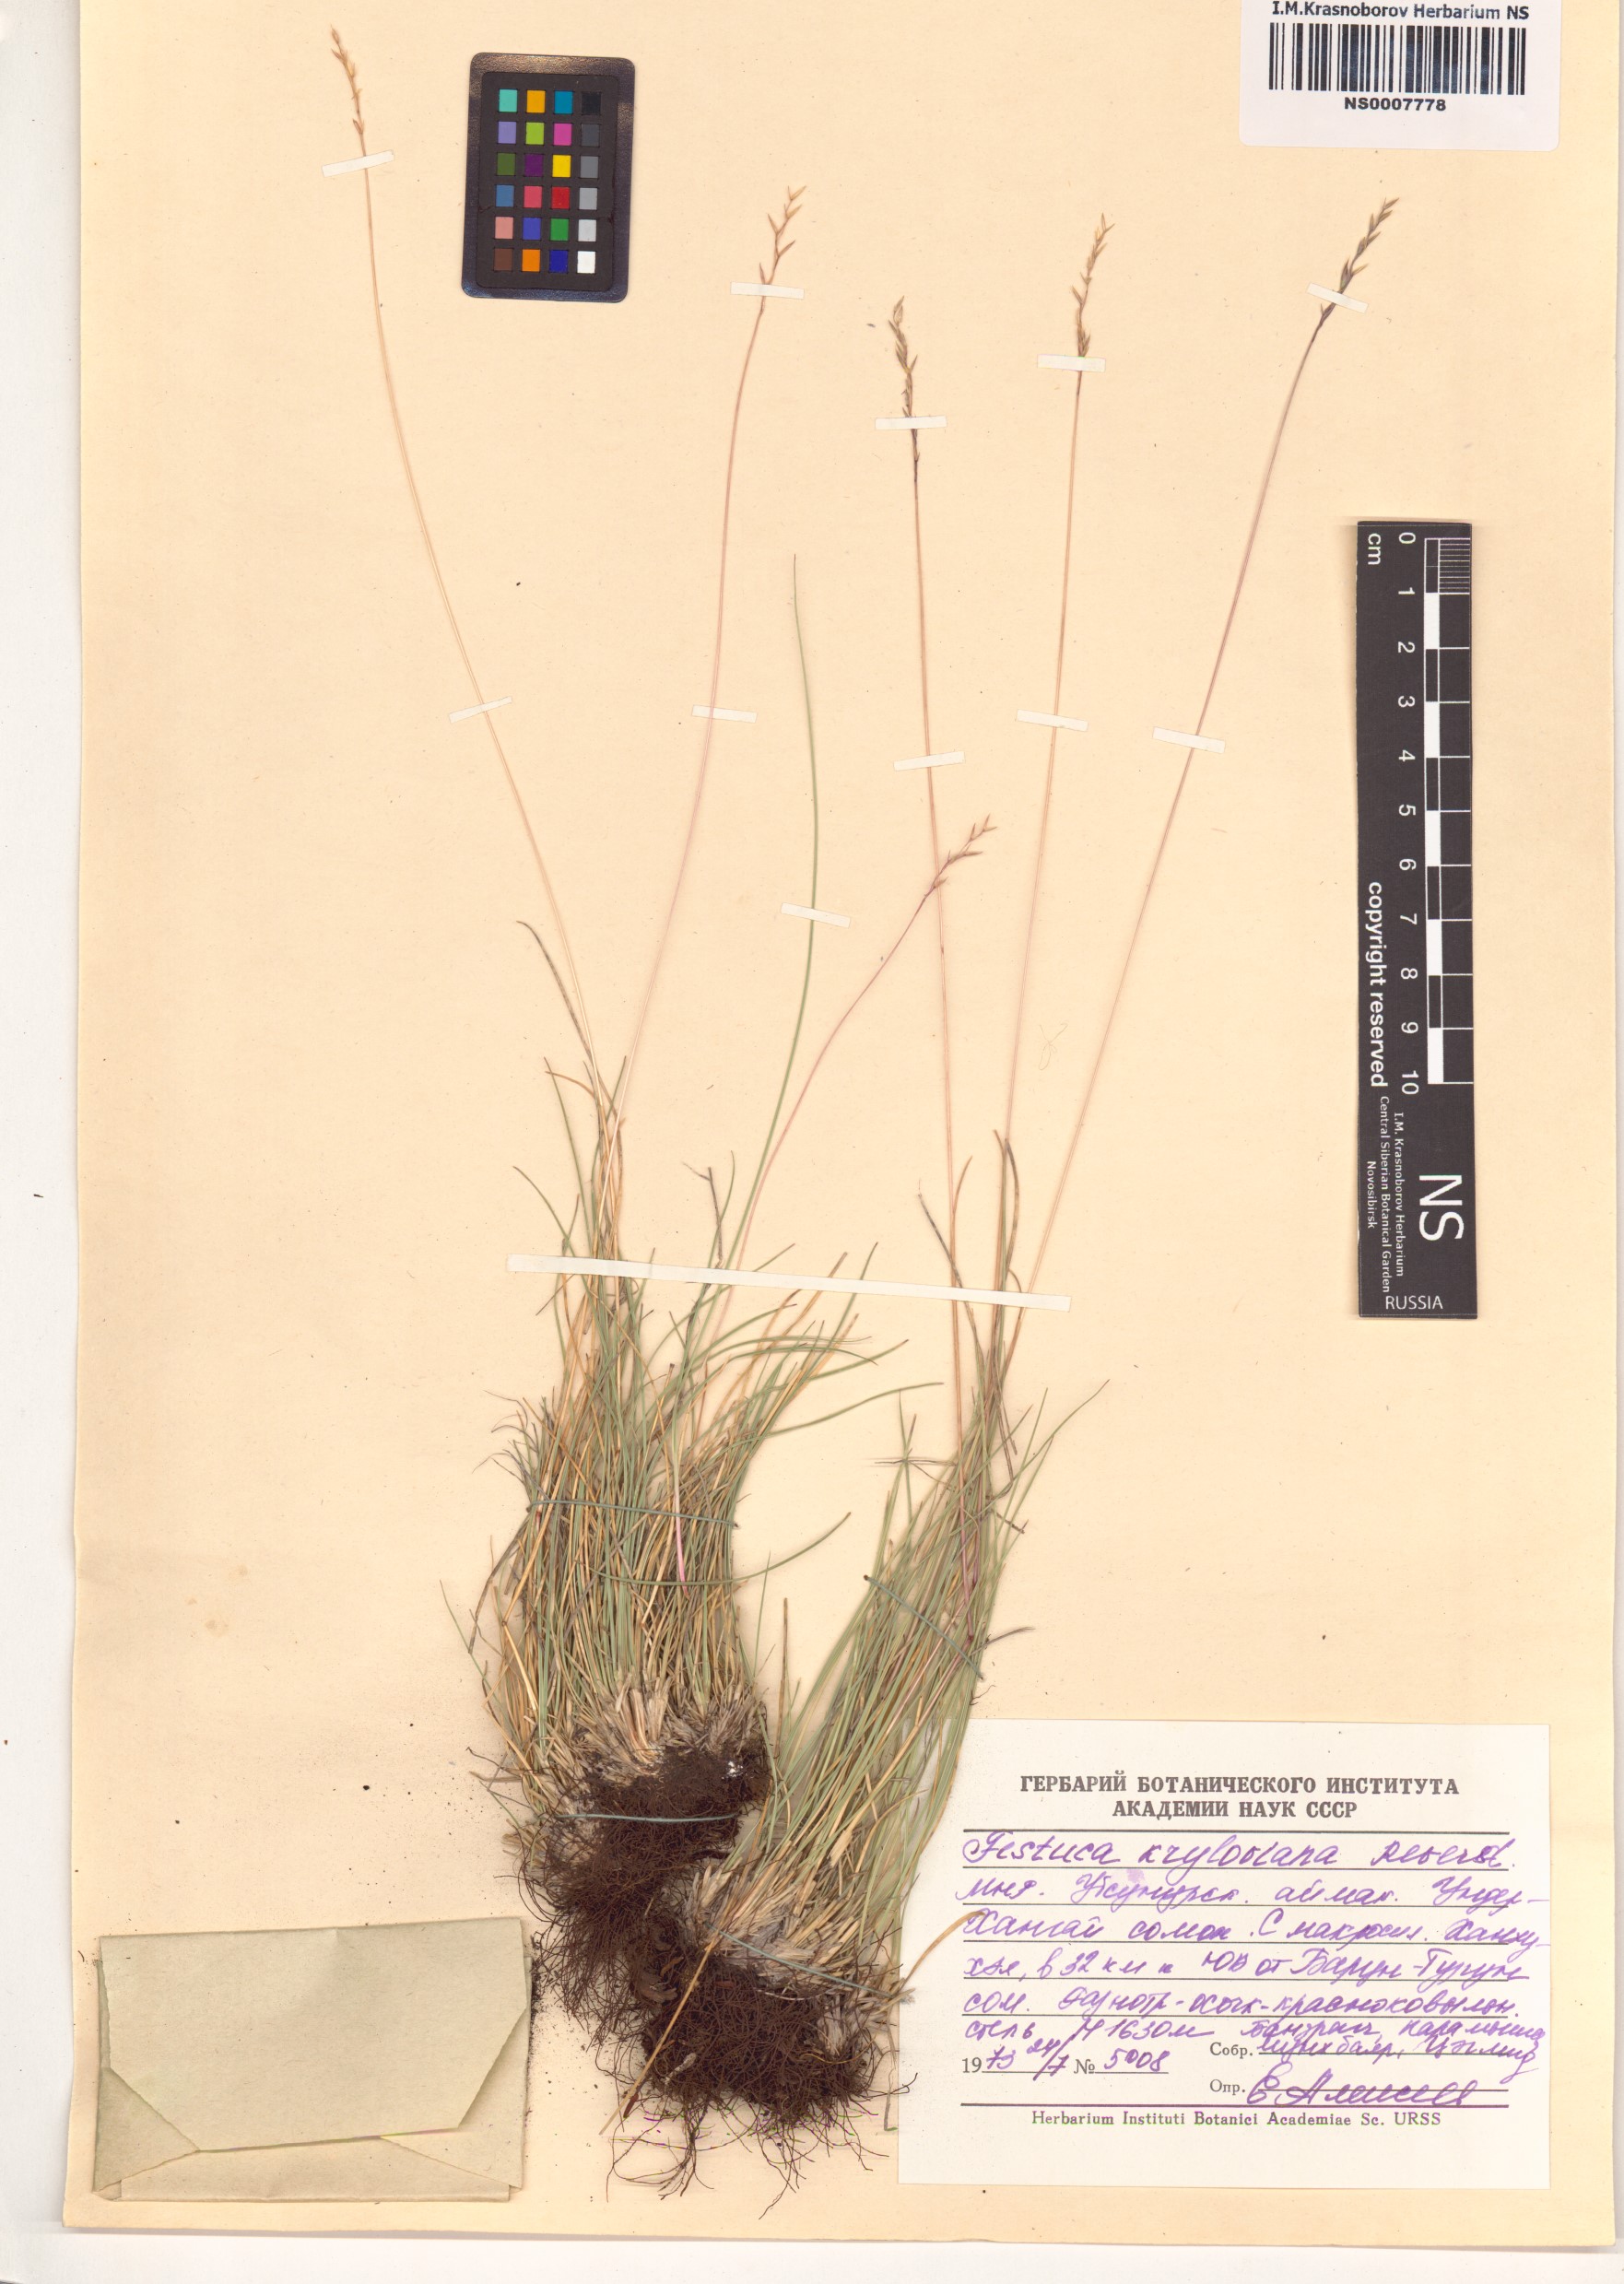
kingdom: Plantae
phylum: Tracheophyta
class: Liliopsida
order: Poales
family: Poaceae
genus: Festuca
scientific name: Festuca kryloviana
